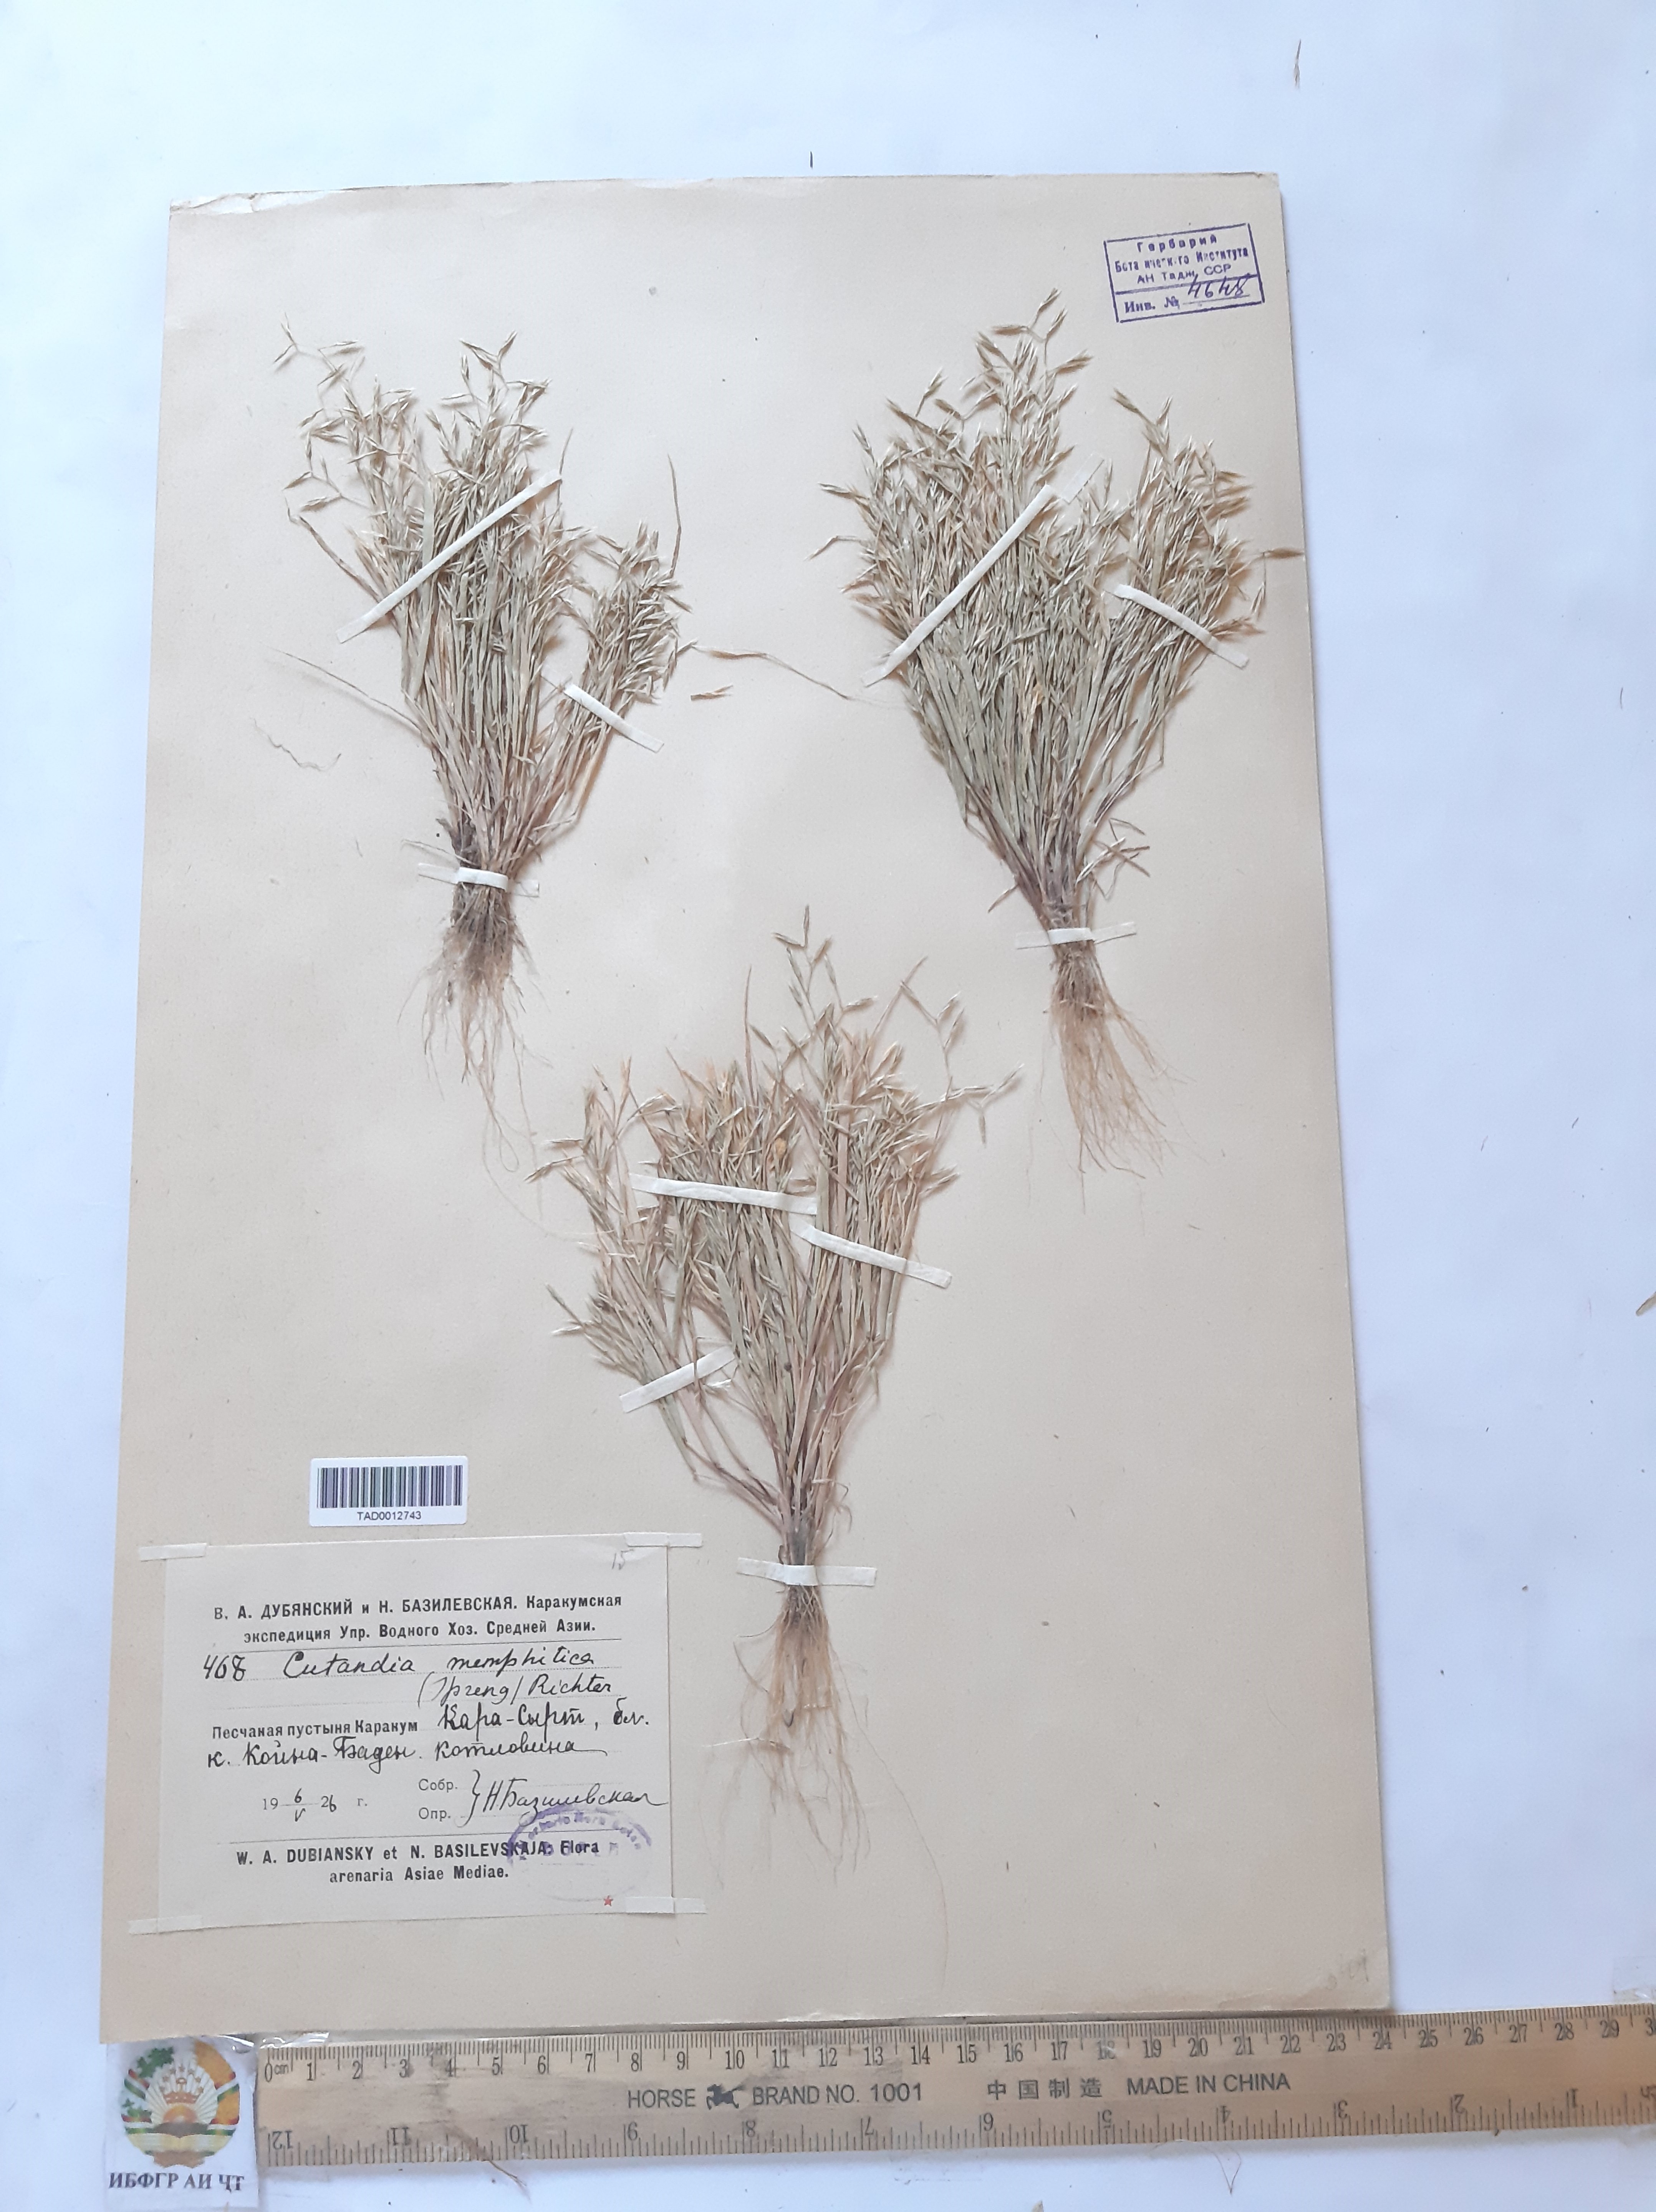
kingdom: Plantae
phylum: Tracheophyta
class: Liliopsida
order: Poales
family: Poaceae
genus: Cutandia
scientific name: Cutandia memphitica
